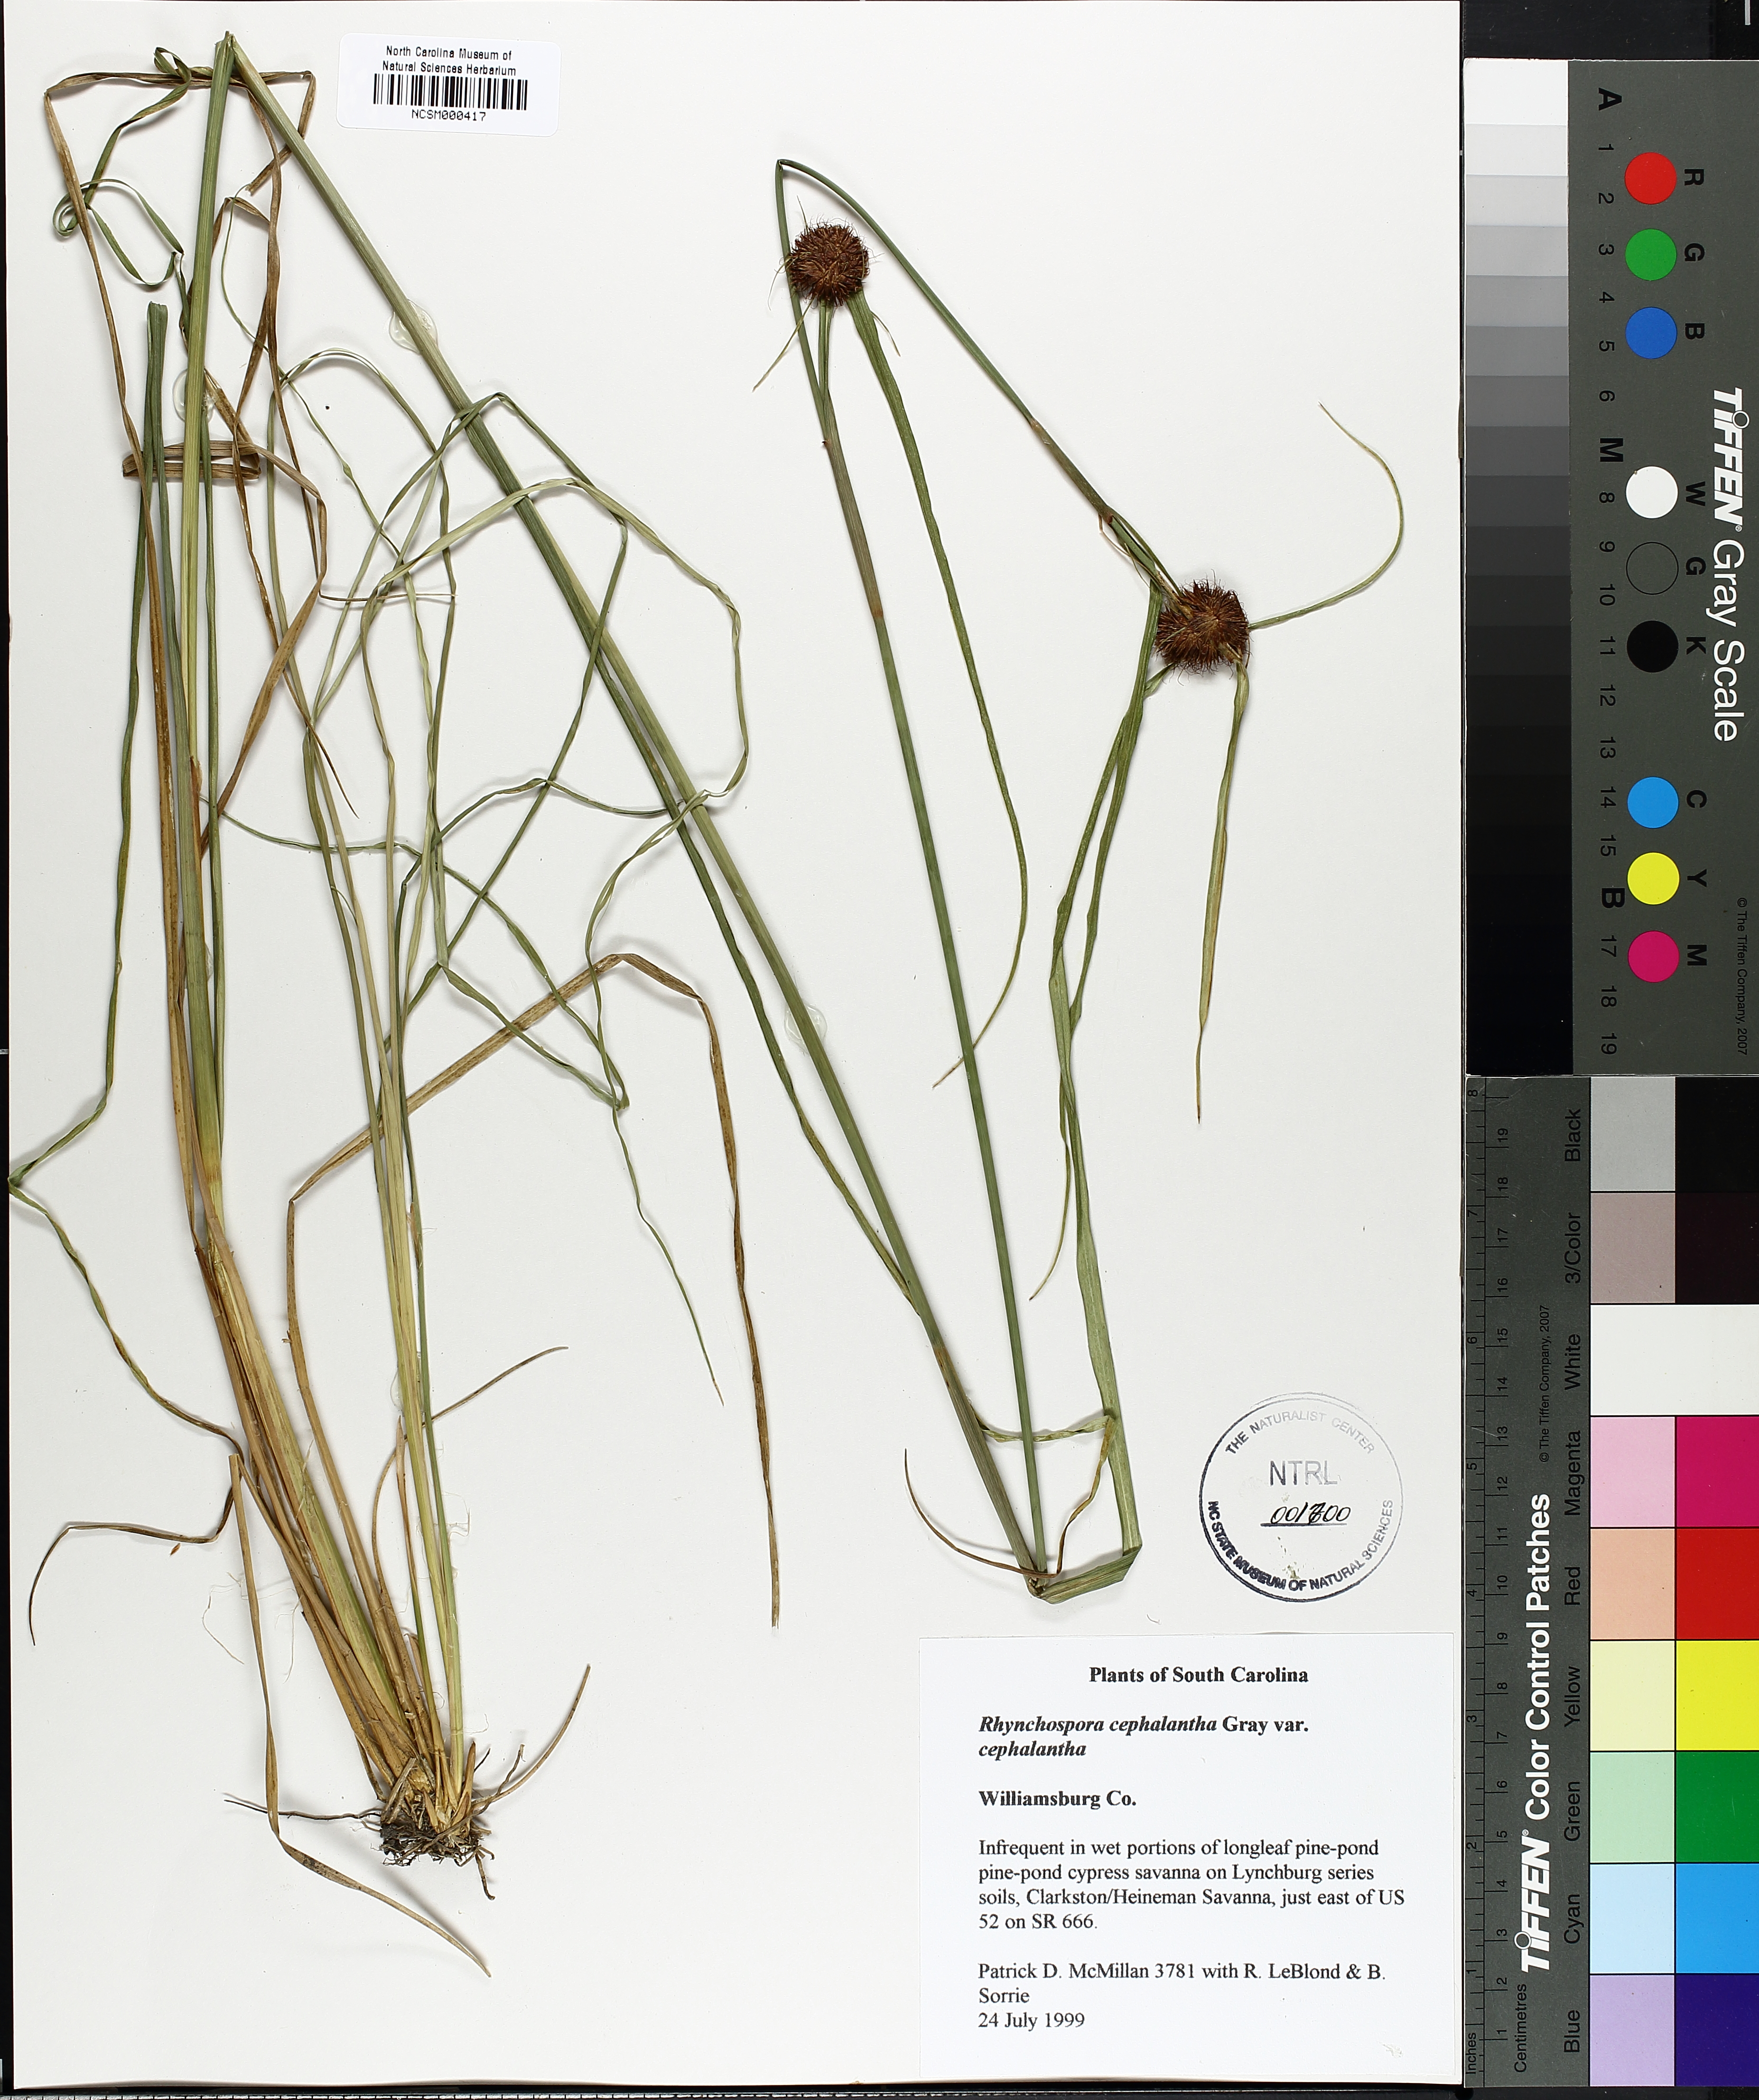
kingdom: Plantae
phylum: Tracheophyta
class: Liliopsida
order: Poales
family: Cyperaceae
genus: Rhynchospora
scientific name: Rhynchospora cephalantha
